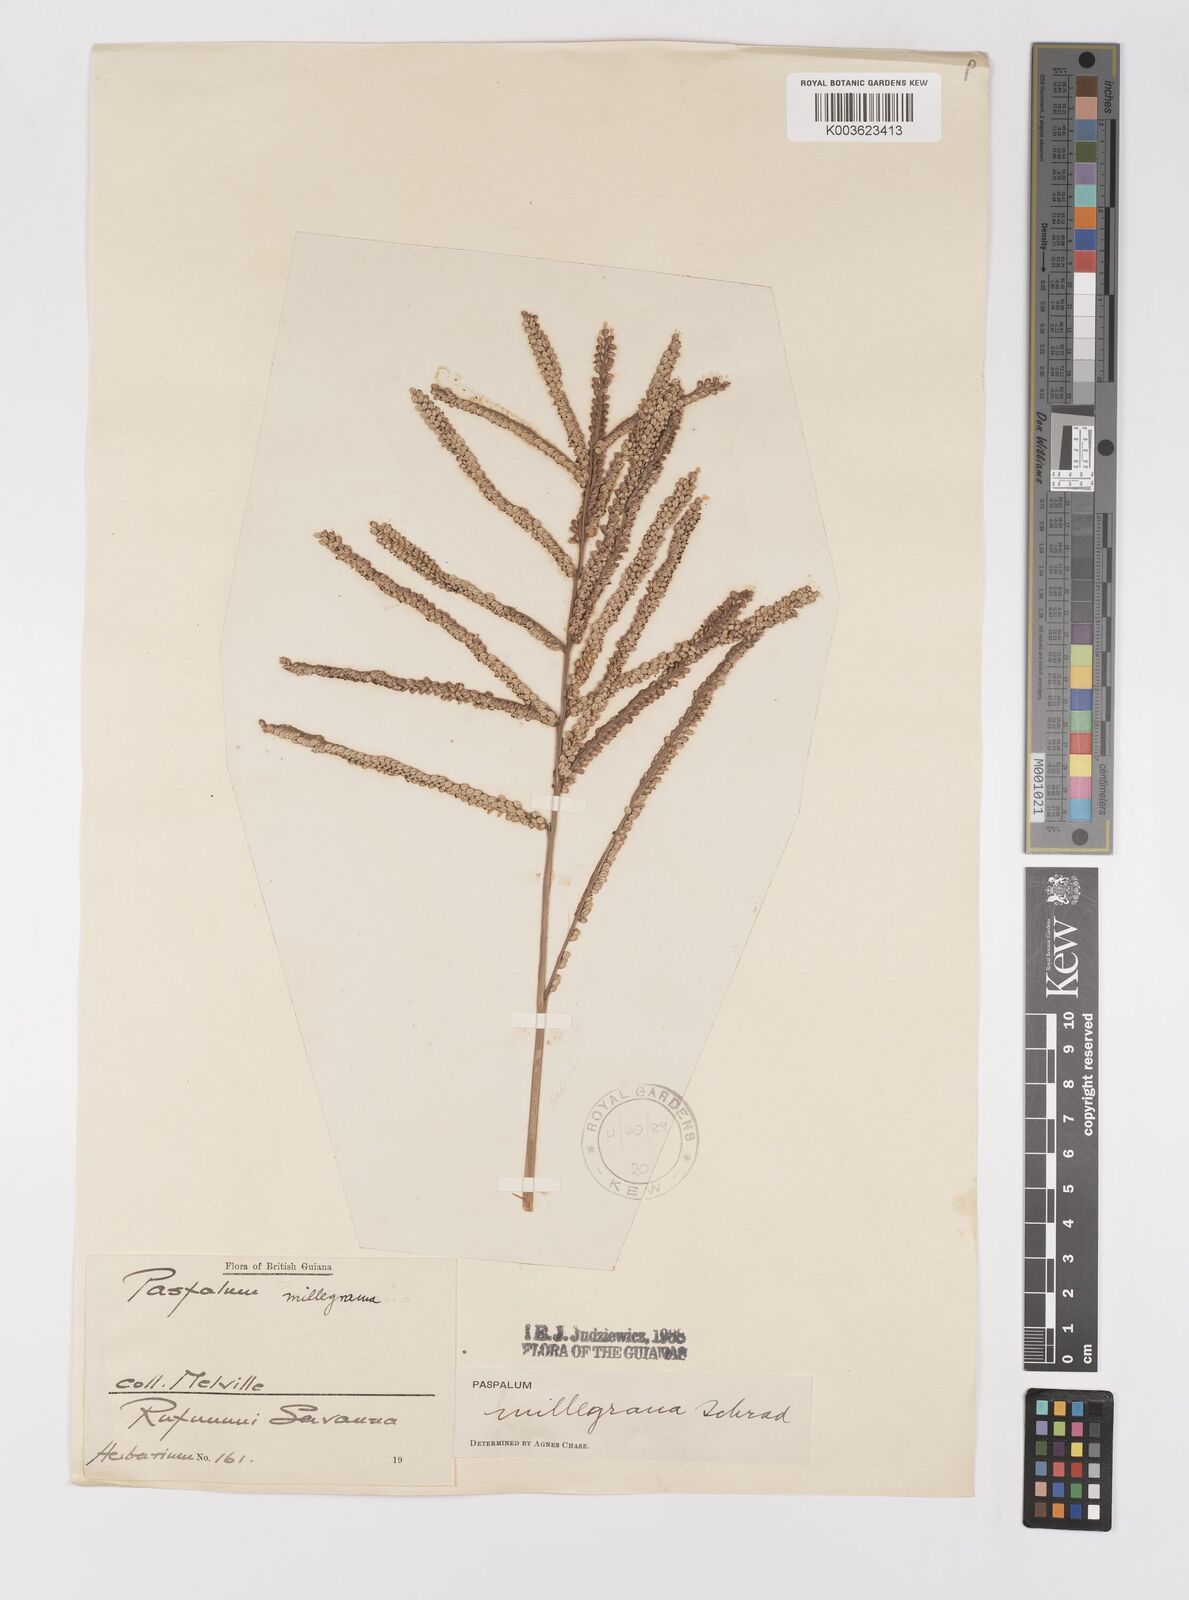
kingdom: Plantae
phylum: Tracheophyta
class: Liliopsida
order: Poales
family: Poaceae
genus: Paspalum
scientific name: Paspalum millegranum
